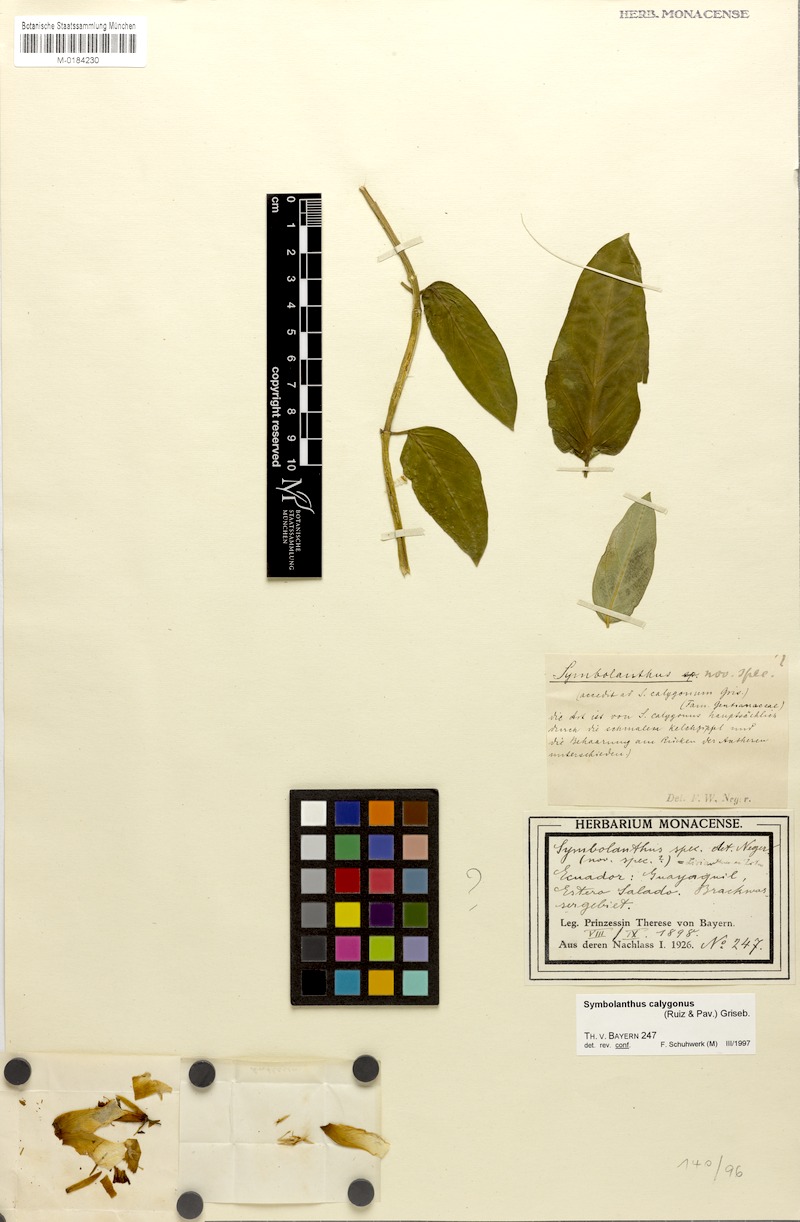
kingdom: Plantae
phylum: Tracheophyta
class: Magnoliopsida
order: Gentianales
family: Gentianaceae
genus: Symbolanthus
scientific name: Symbolanthus calygonus
